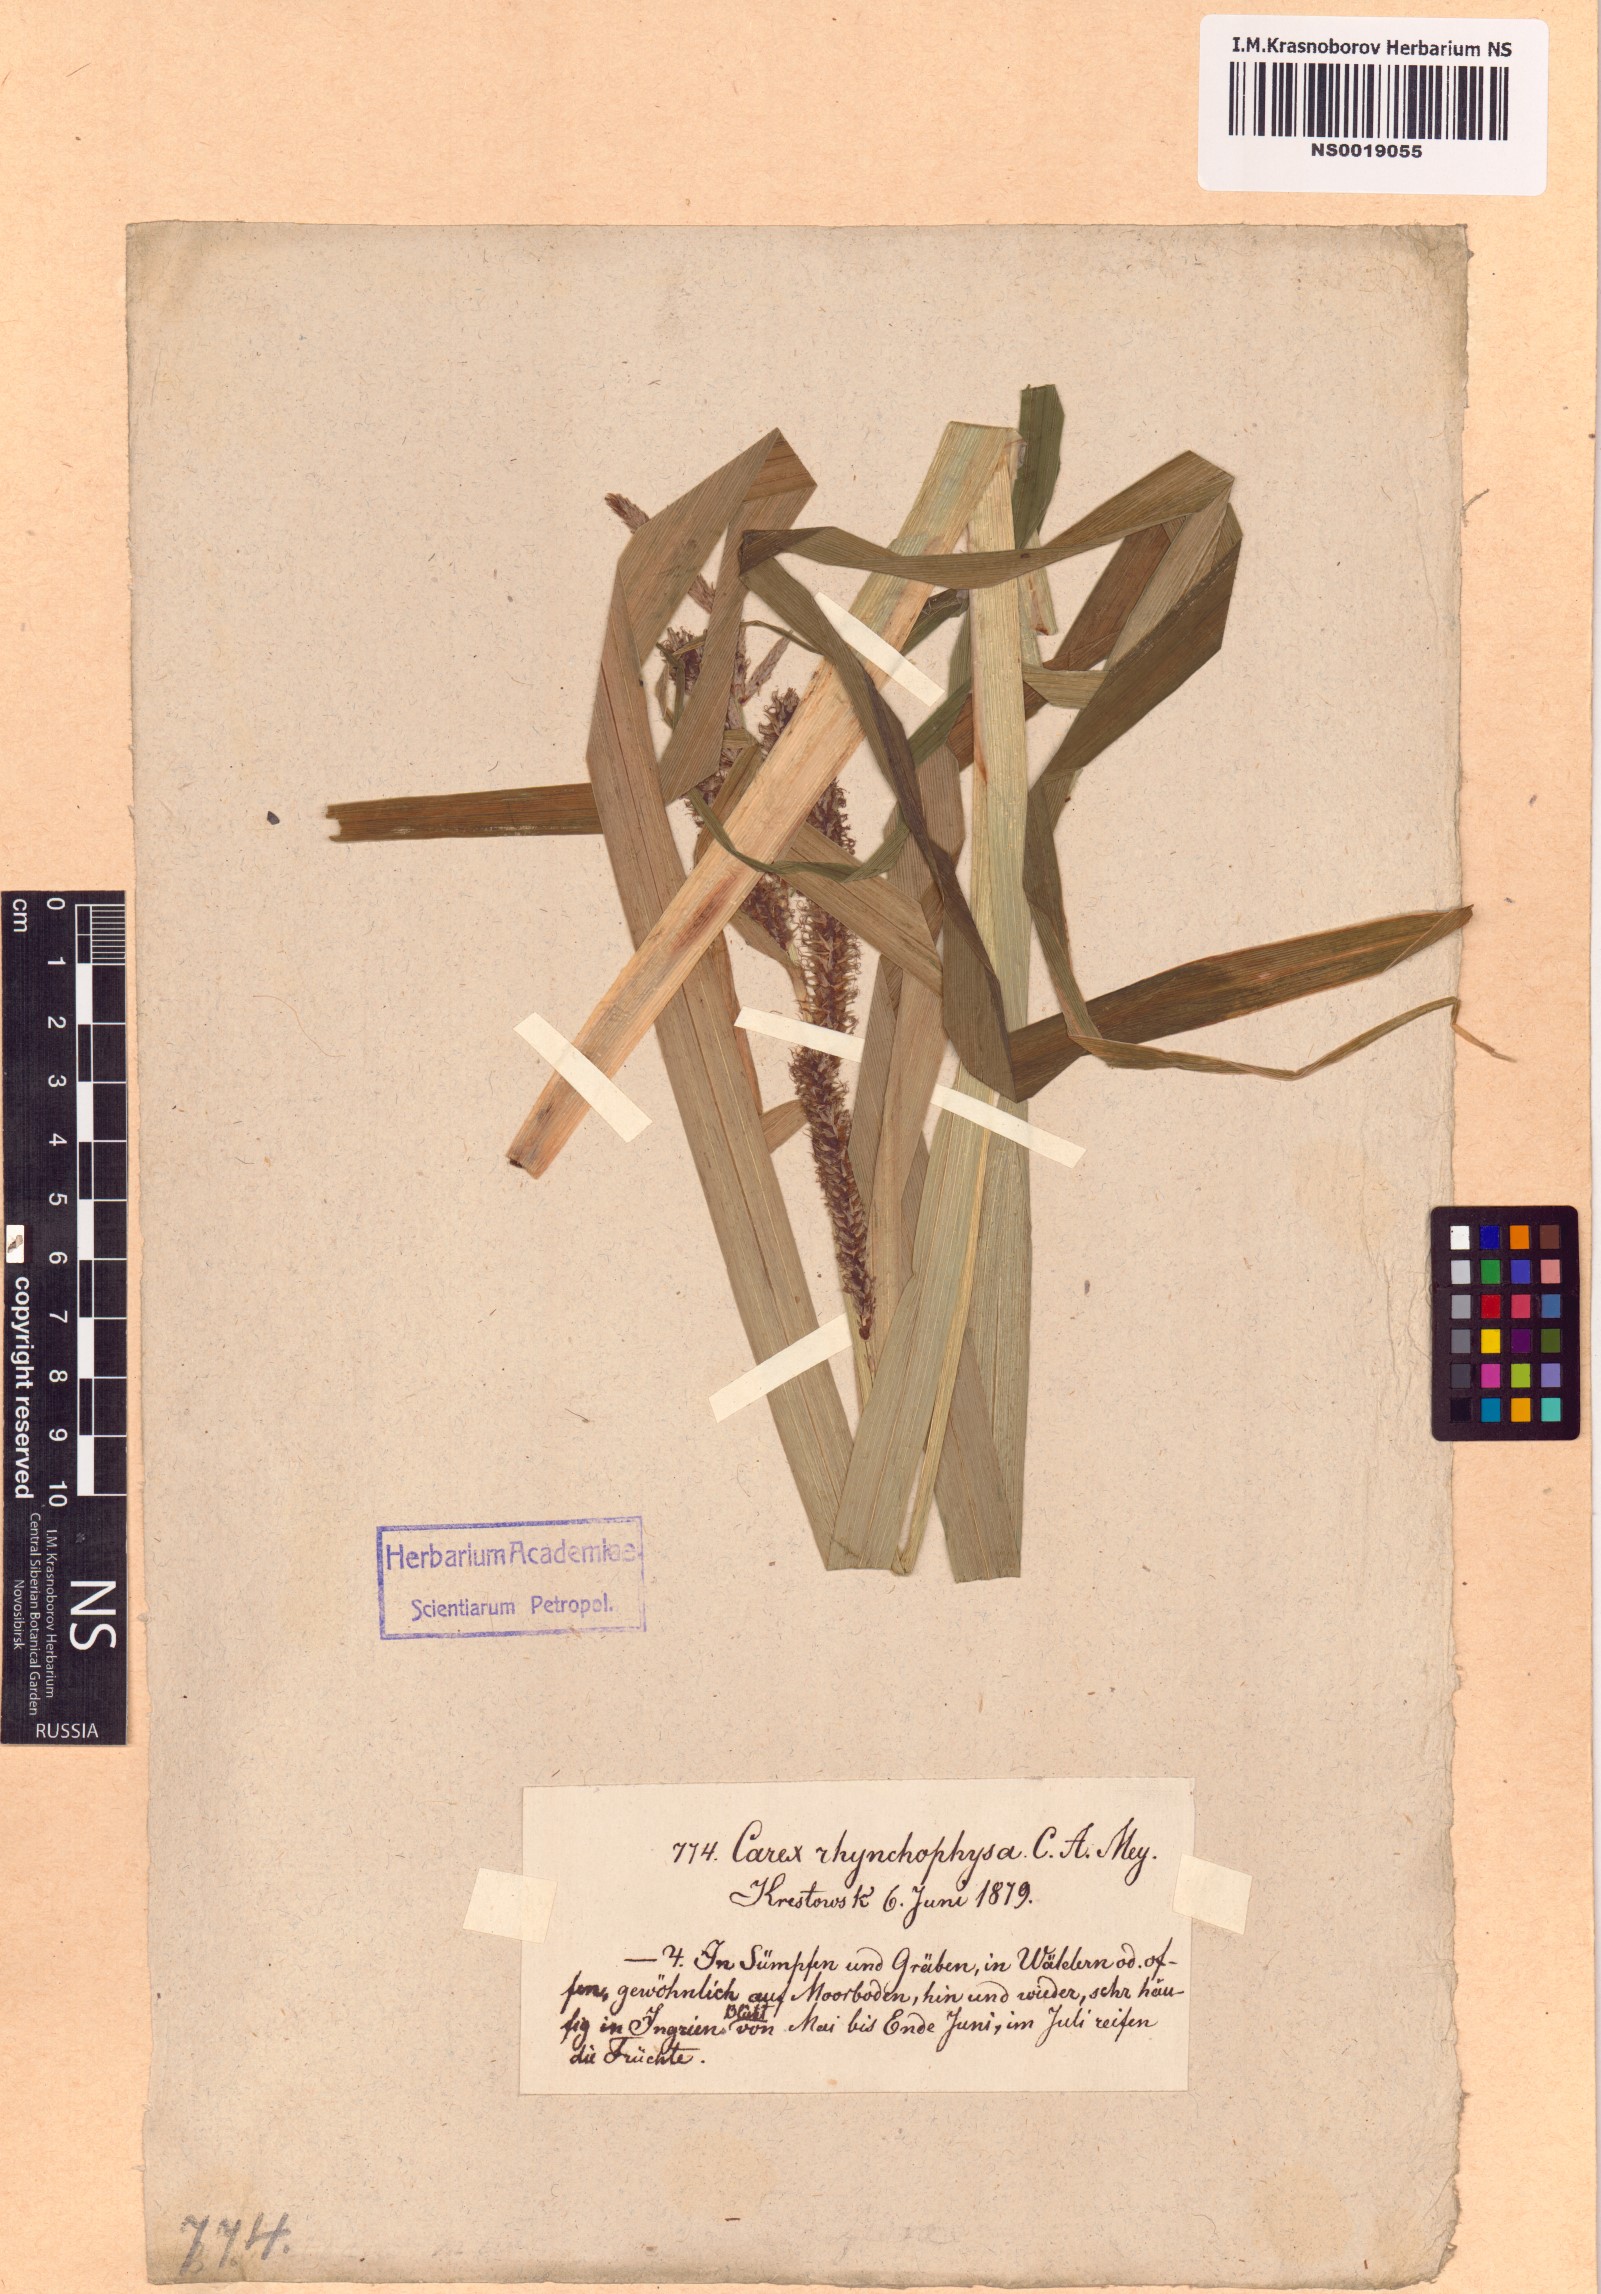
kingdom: Plantae
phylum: Tracheophyta
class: Liliopsida
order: Poales
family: Cyperaceae
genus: Carex
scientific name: Carex utriculata
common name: Beaked sedge
